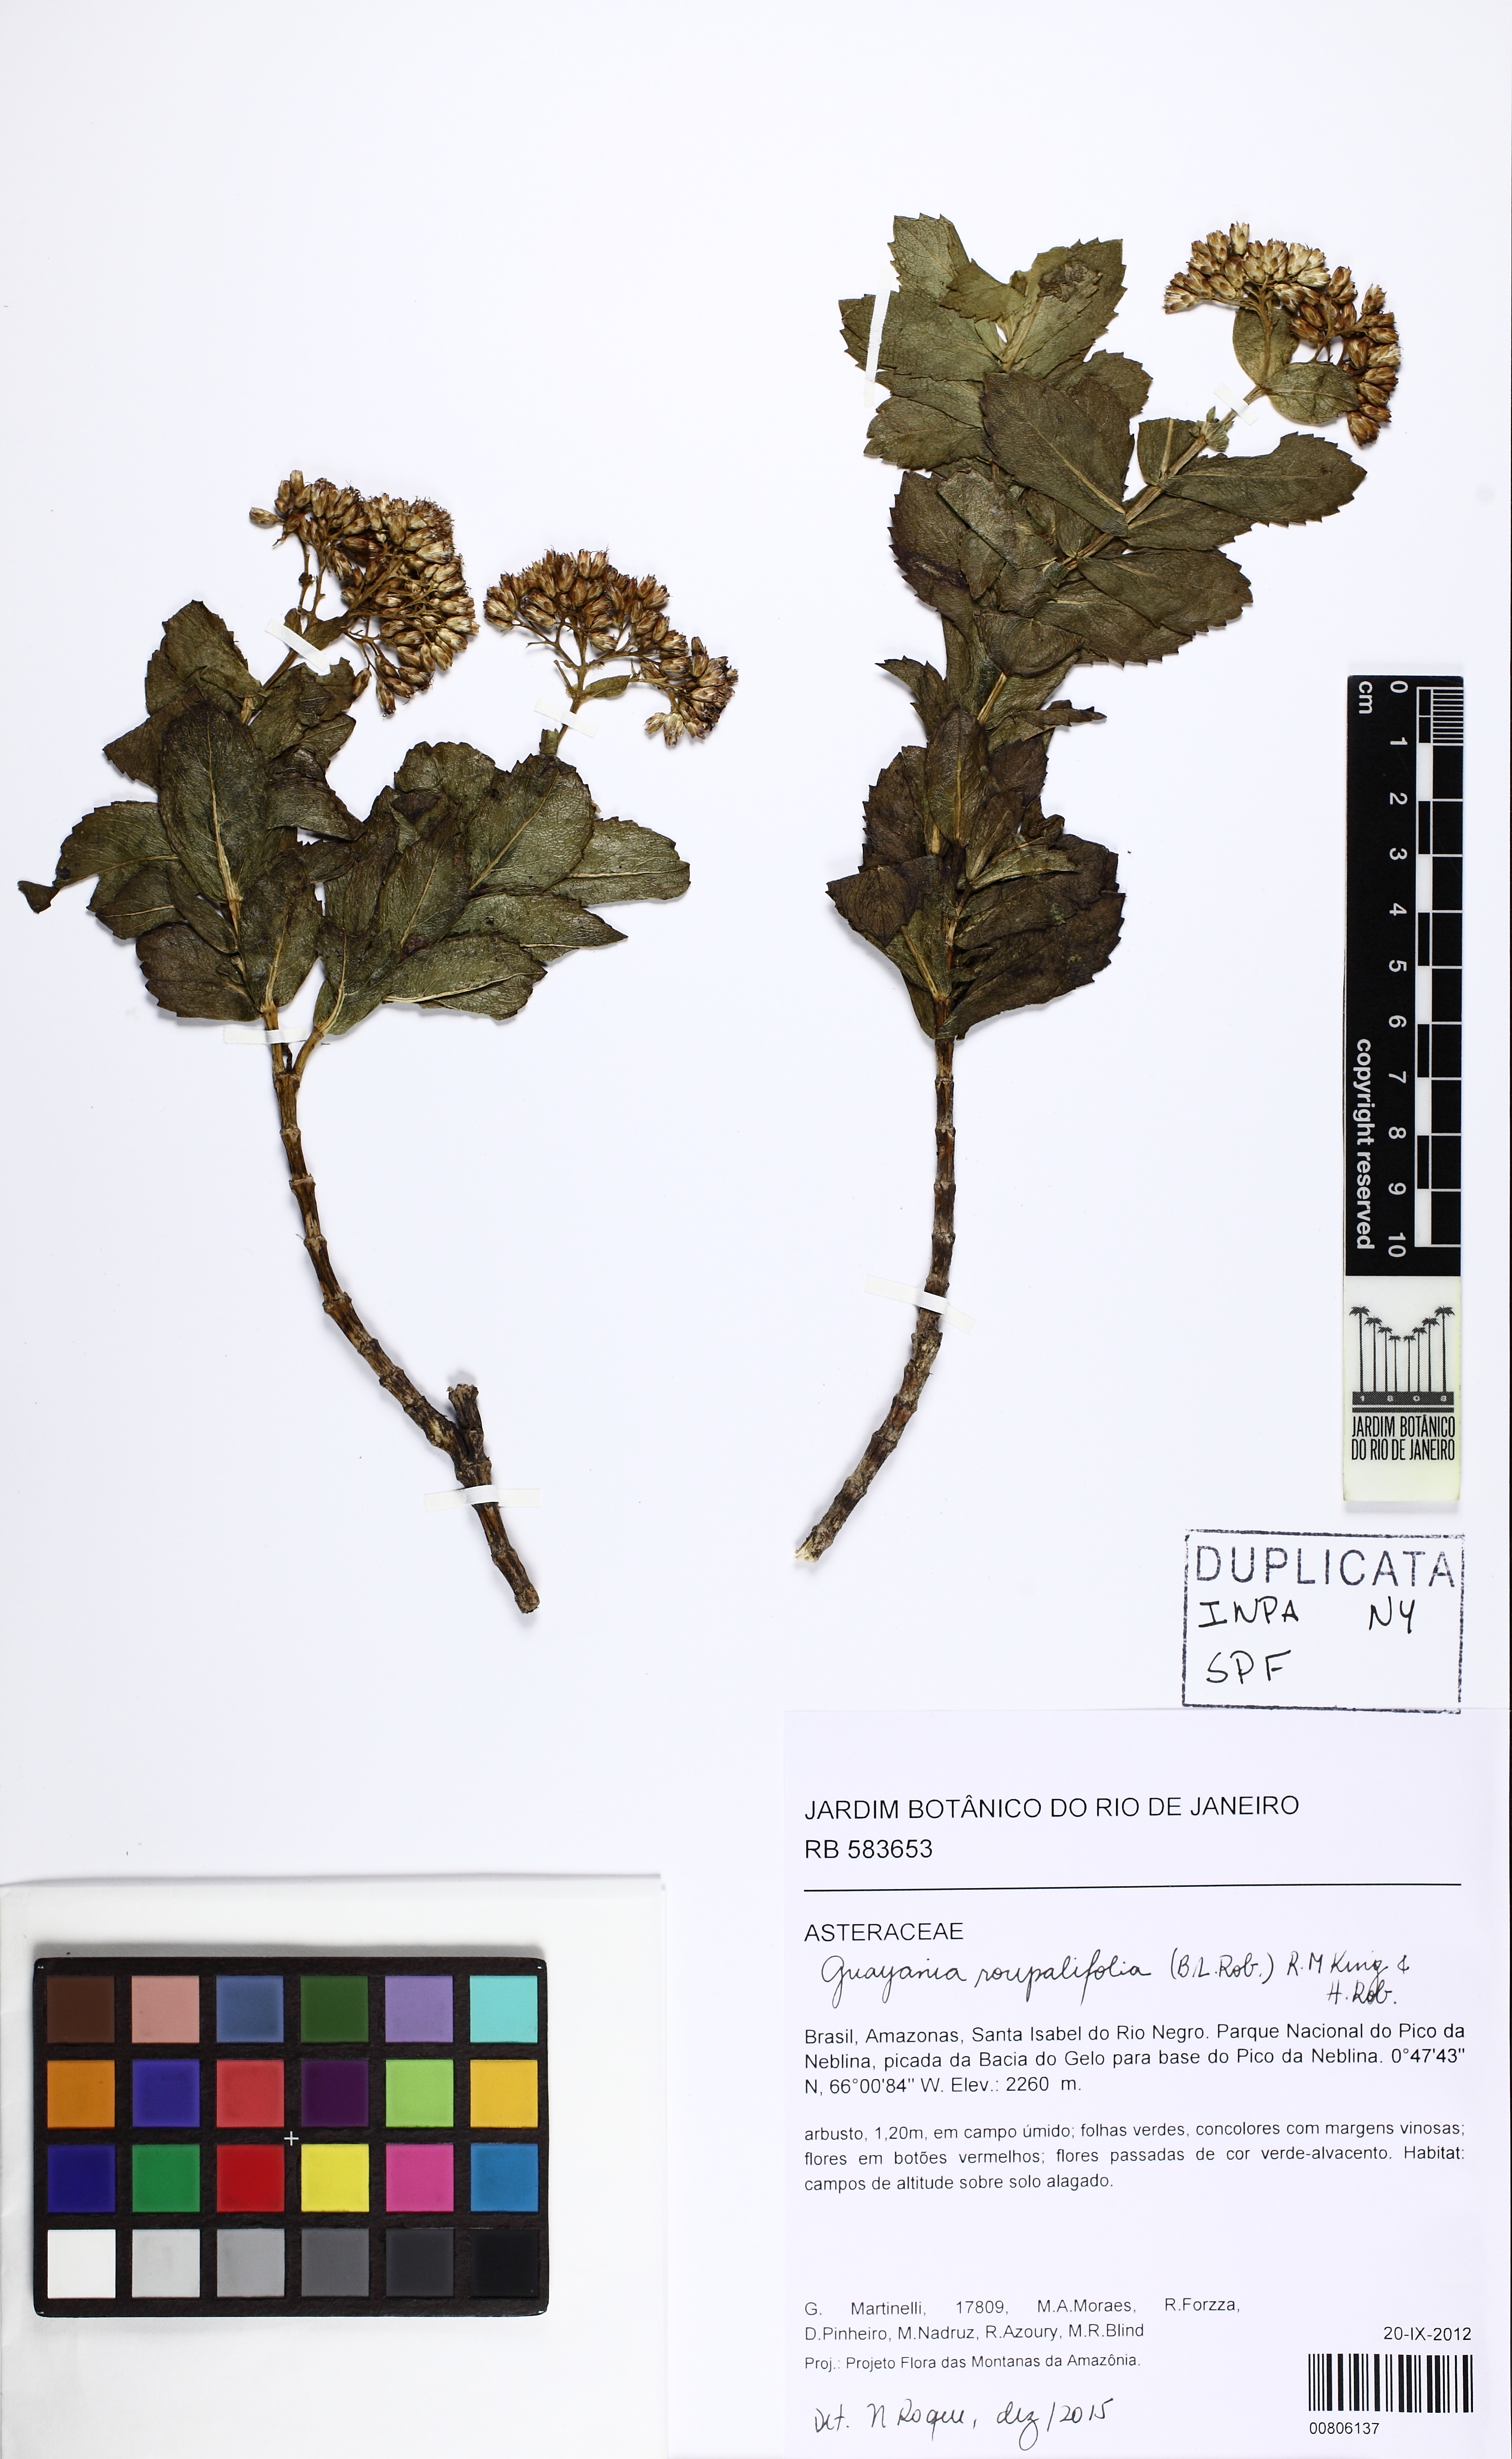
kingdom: Plantae
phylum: Tracheophyta
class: Magnoliopsida
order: Asterales
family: Asteraceae
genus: Guayania
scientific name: Guayania roupalifolia
